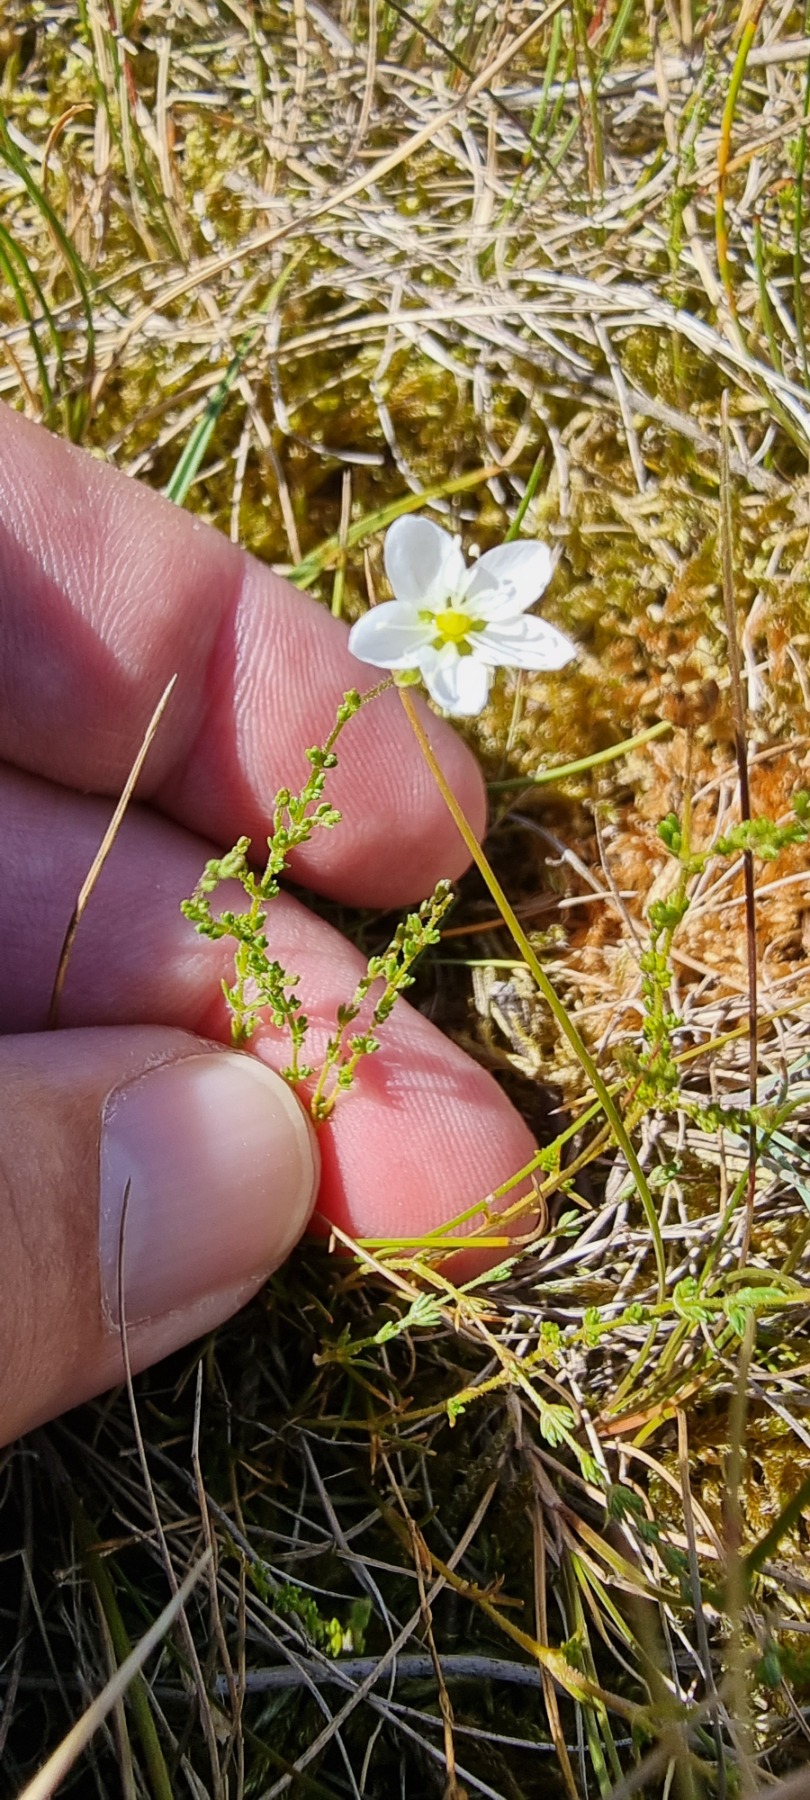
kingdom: Plantae
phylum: Tracheophyta
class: Magnoliopsida
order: Caryophyllales
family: Caryophyllaceae
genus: Sagina
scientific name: Sagina nodosa
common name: Knude-firling
